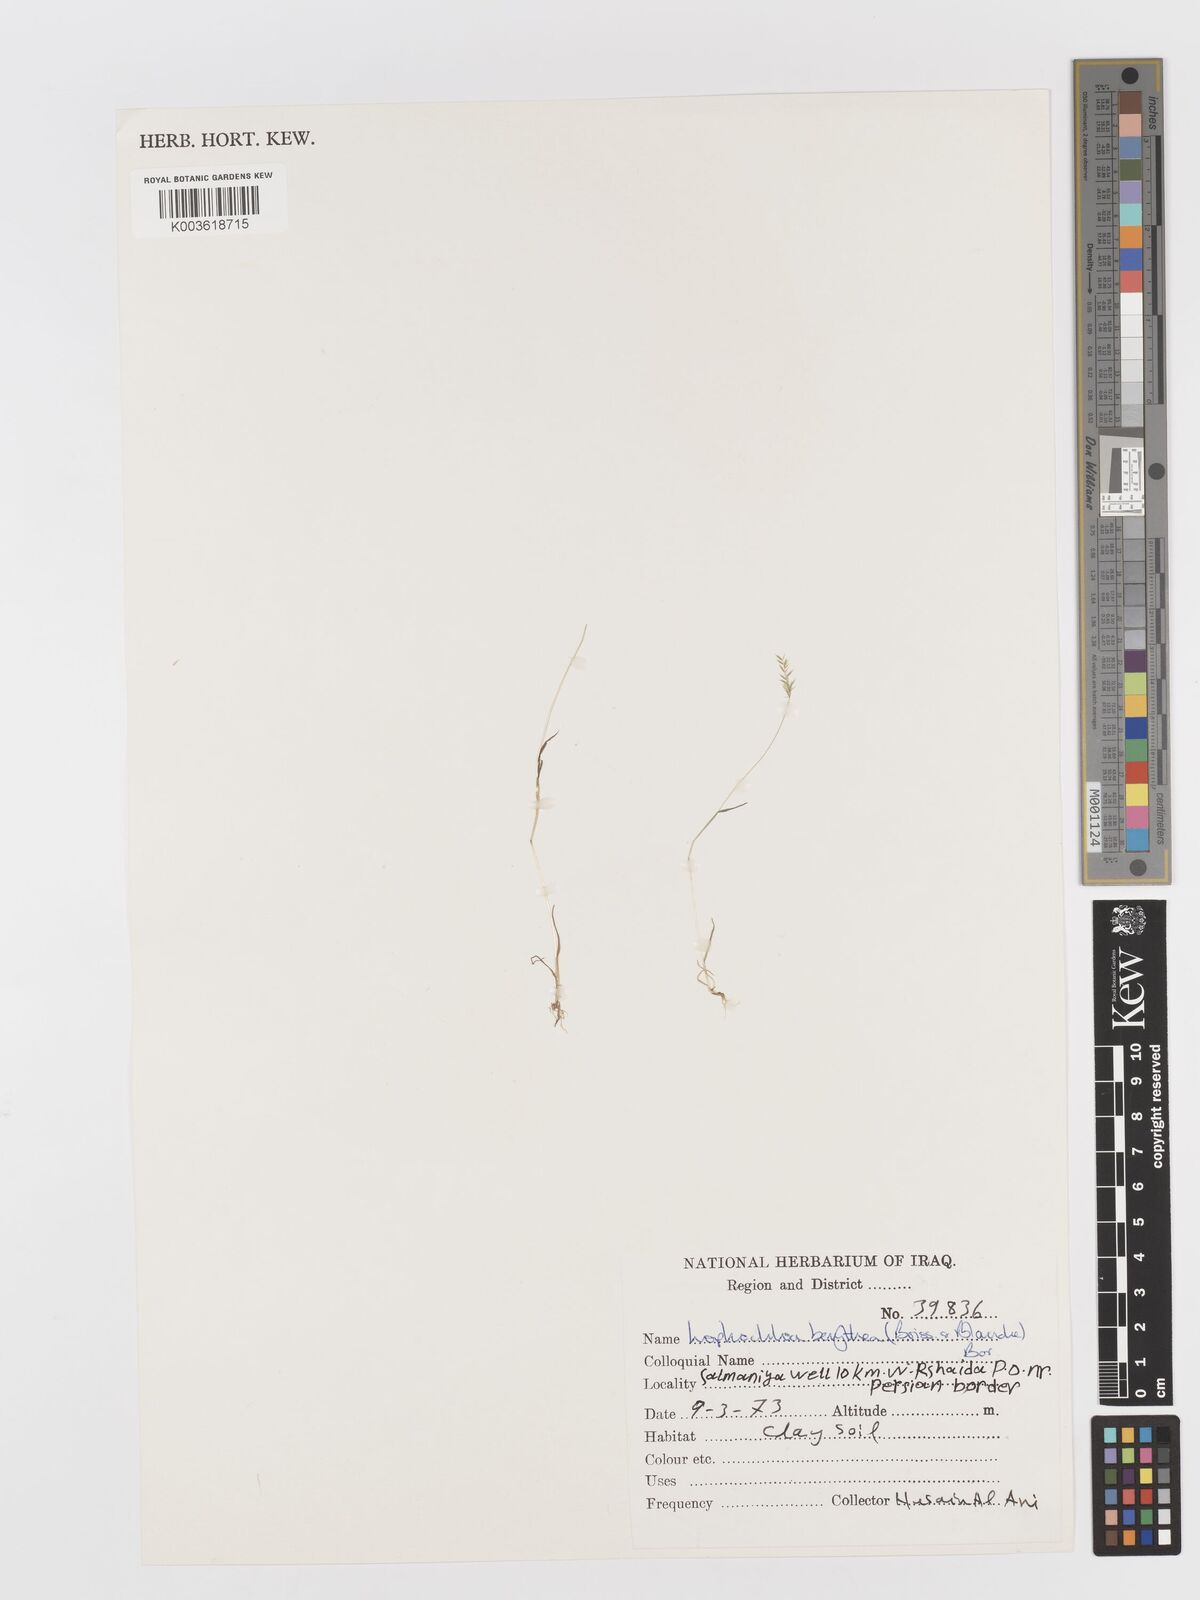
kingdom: Plantae
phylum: Tracheophyta
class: Liliopsida
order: Poales
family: Poaceae
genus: Rostraria
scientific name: Rostraria smyrnaea
